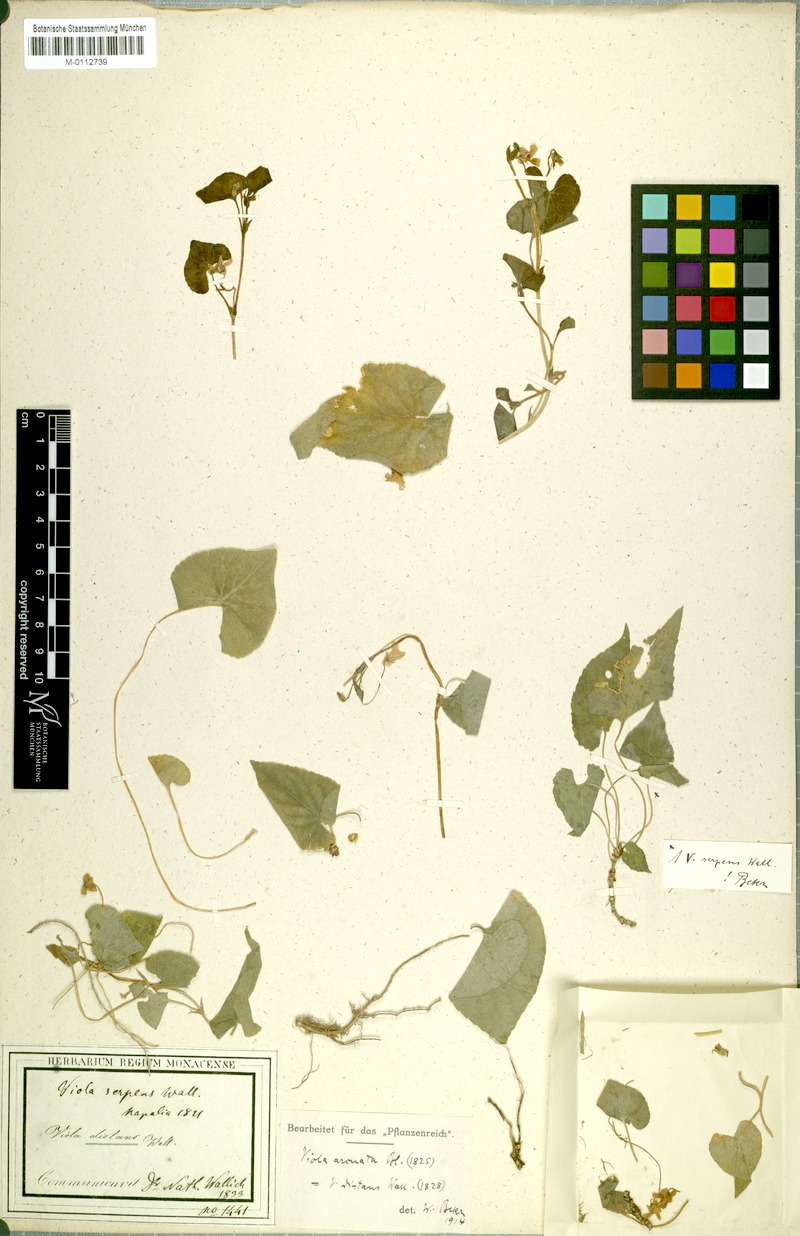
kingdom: Plantae
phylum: Tracheophyta
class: Magnoliopsida
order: Malpighiales
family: Violaceae
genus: Viola
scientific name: Viola pilosa
